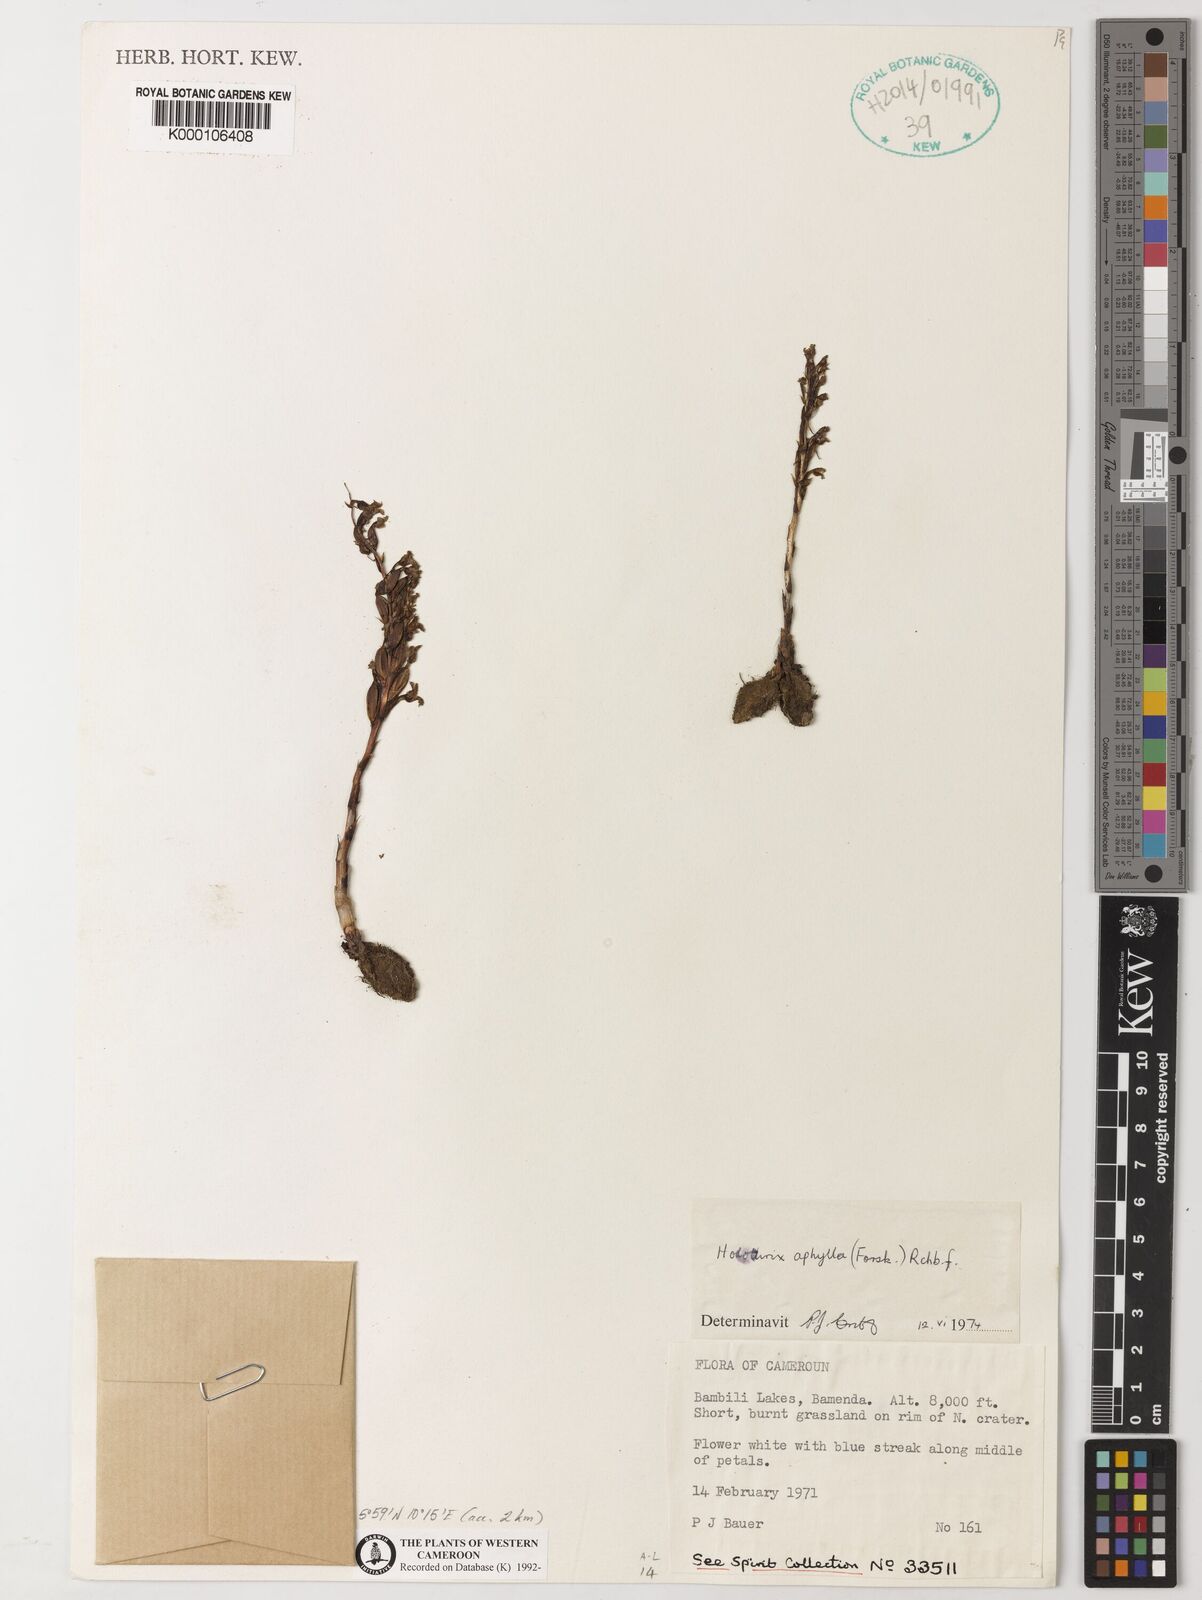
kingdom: Plantae
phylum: Tracheophyta
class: Liliopsida
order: Asparagales
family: Orchidaceae
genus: Holothrix
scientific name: Holothrix aphylla
